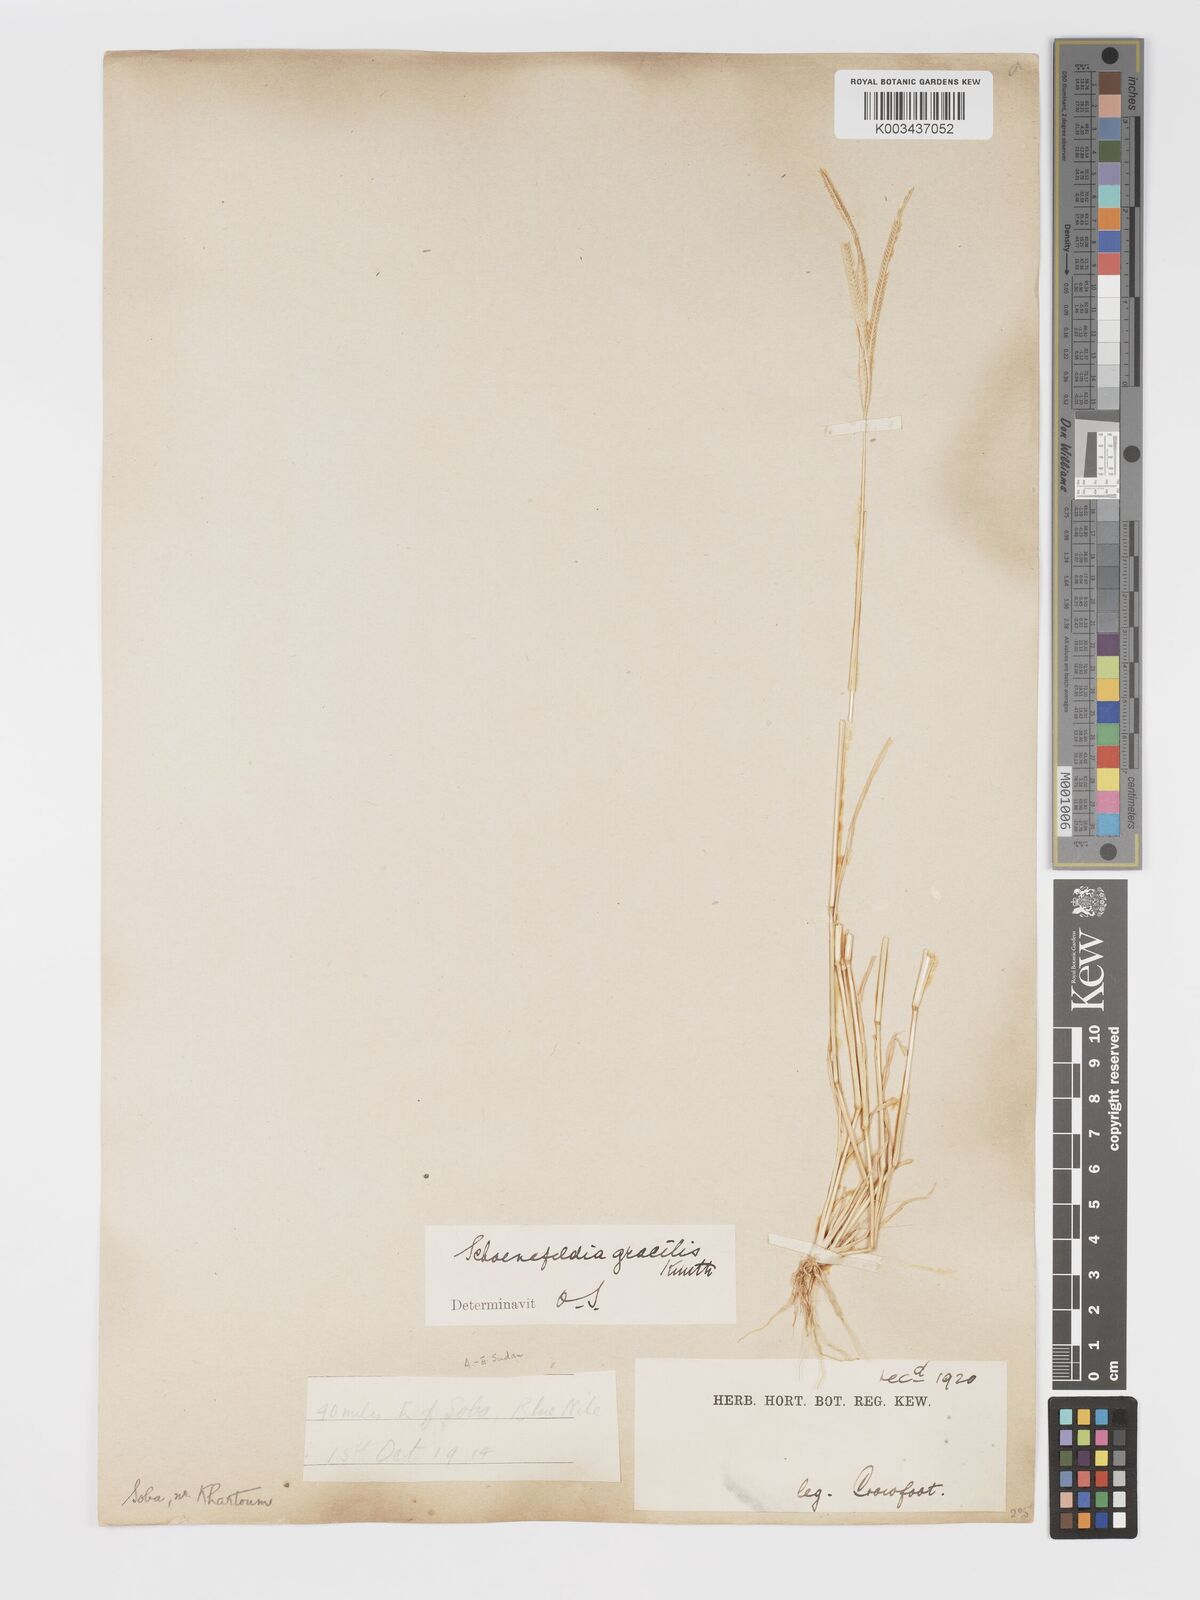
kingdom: Plantae
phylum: Tracheophyta
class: Liliopsida
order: Poales
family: Poaceae
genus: Schoenefeldia
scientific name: Schoenefeldia gracilis
